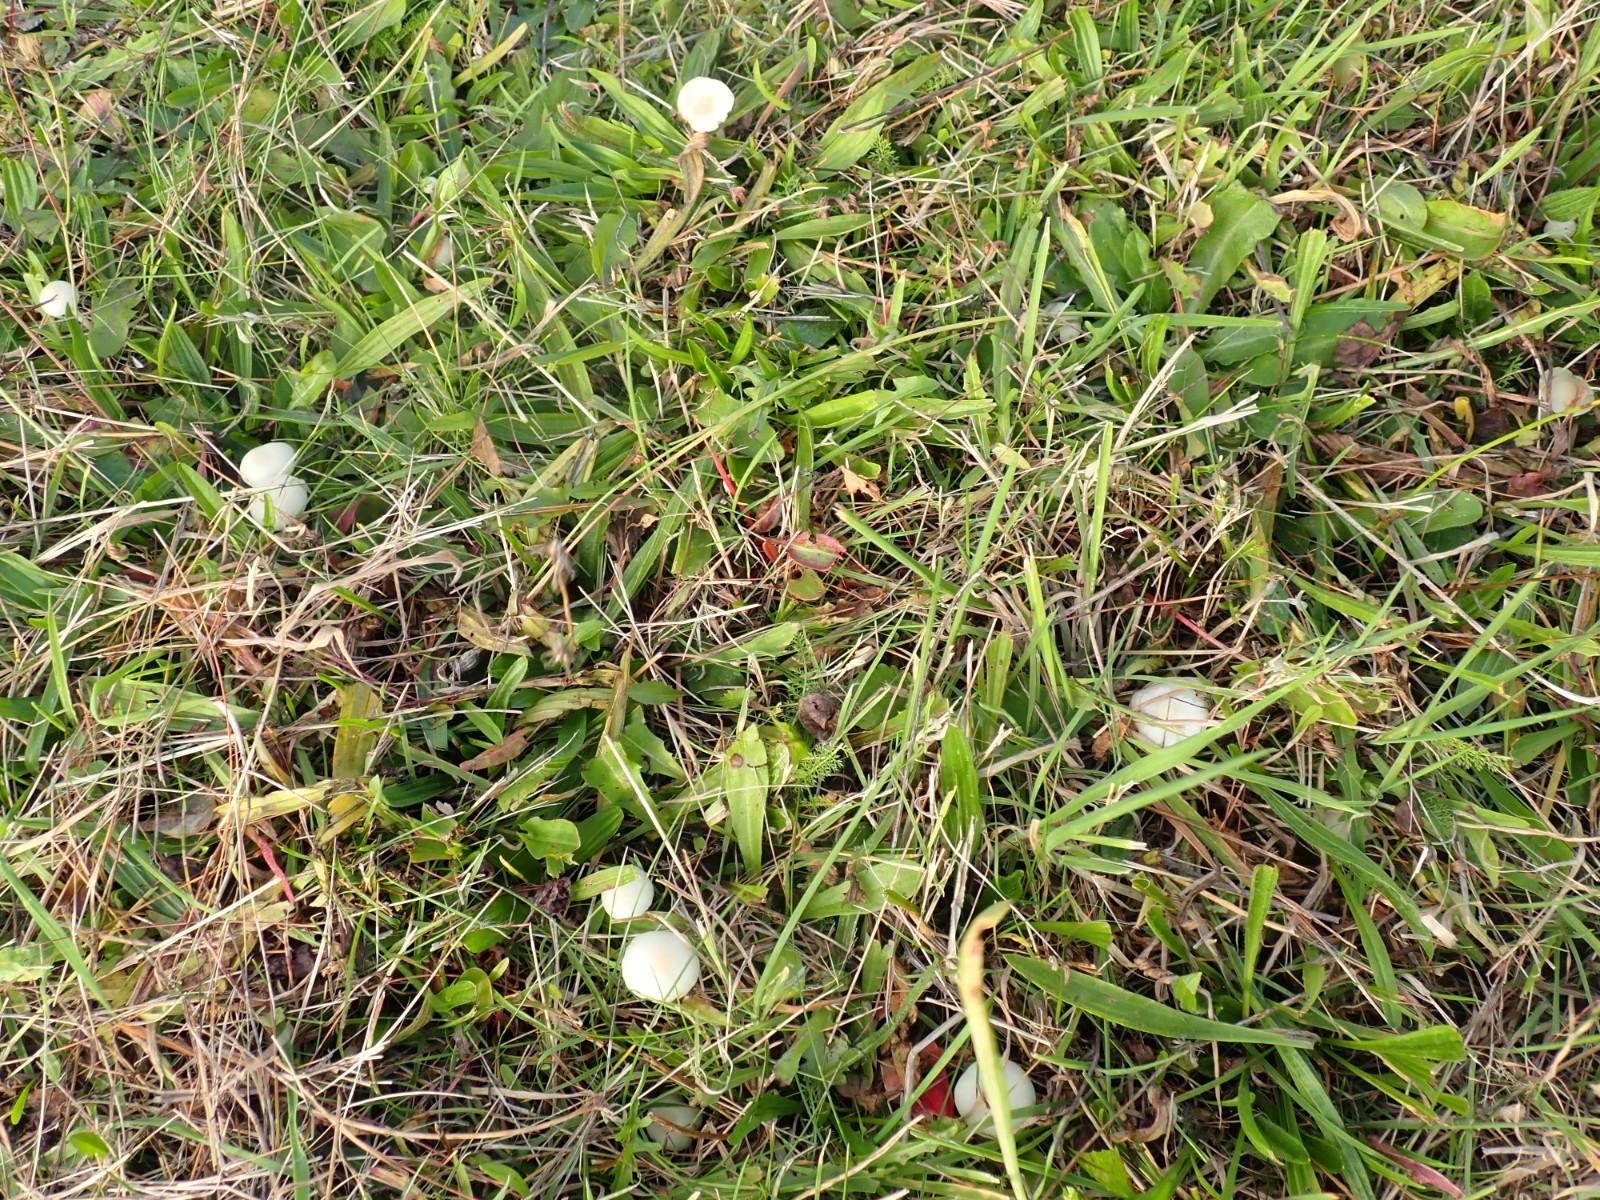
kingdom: Fungi
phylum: Basidiomycota
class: Agaricomycetes
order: Agaricales
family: Hygrophoraceae
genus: Cuphophyllus
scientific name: Cuphophyllus virgineus
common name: snehvid vokshat
